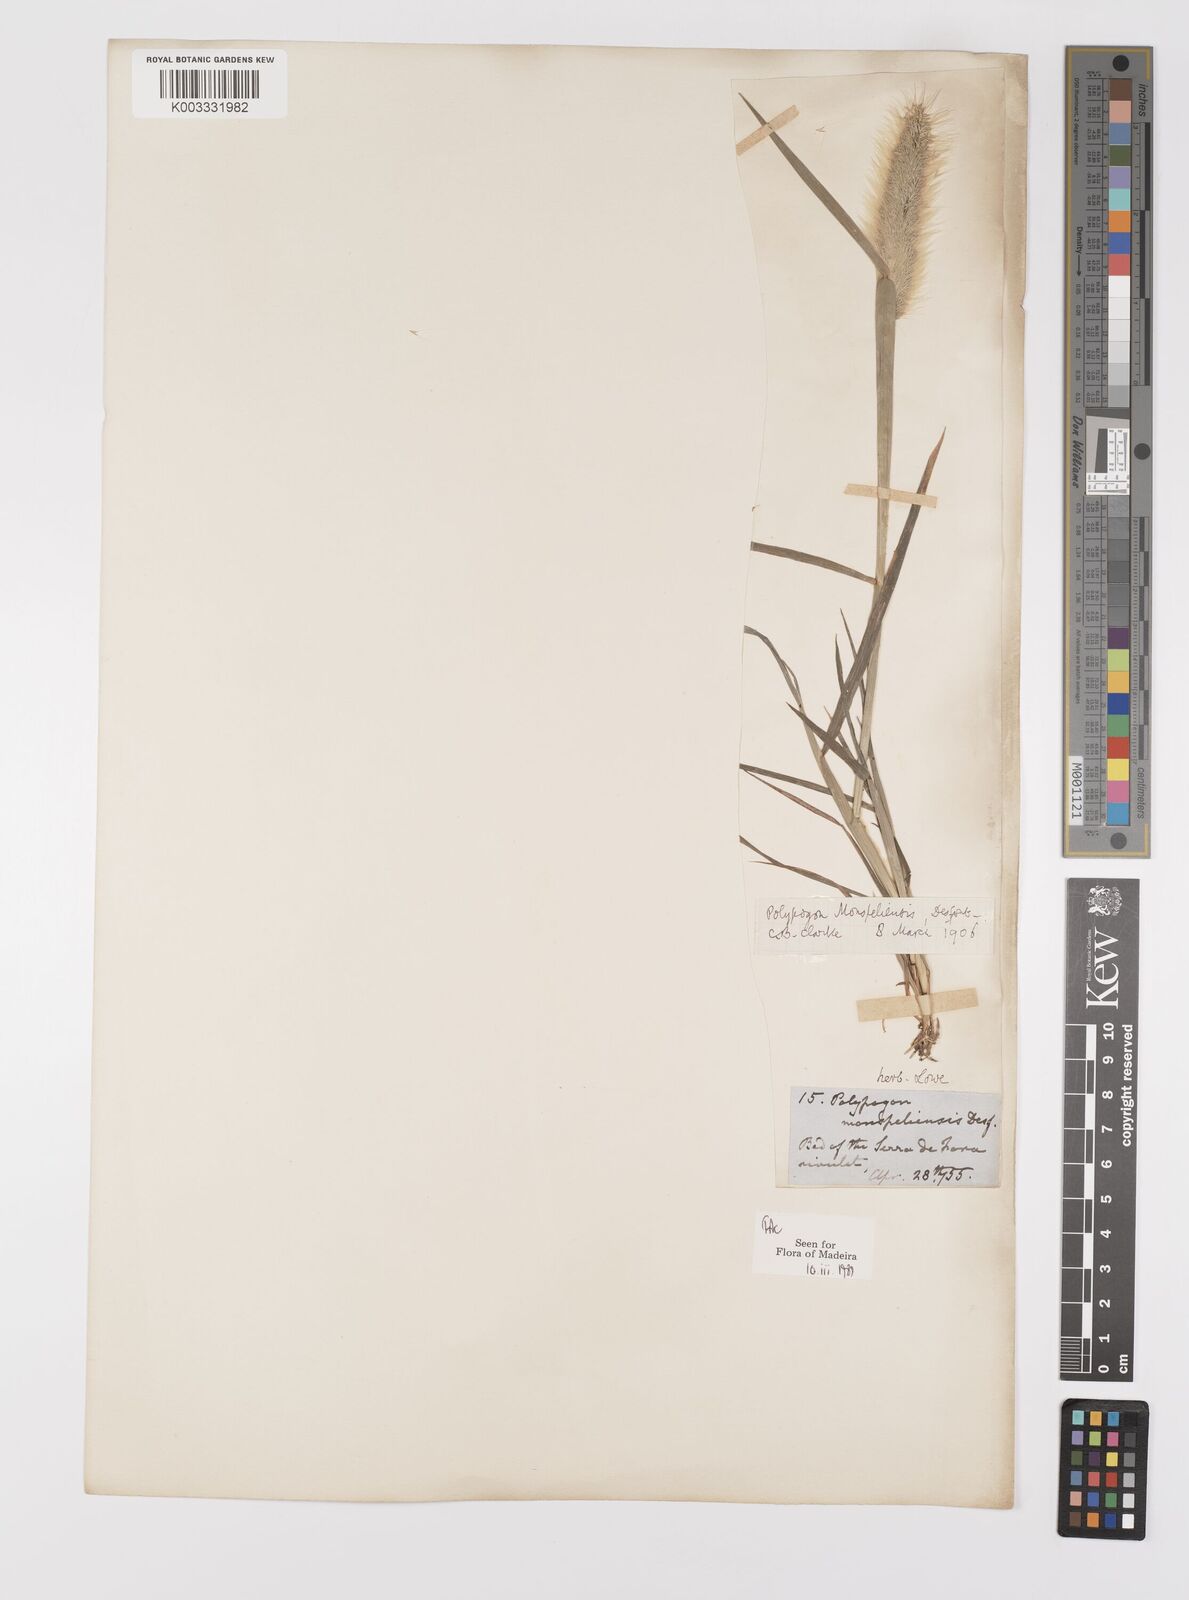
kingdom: Plantae
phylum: Tracheophyta
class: Liliopsida
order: Poales
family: Poaceae
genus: Polypogon
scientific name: Polypogon monspeliensis
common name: Annual rabbitsfoot grass
